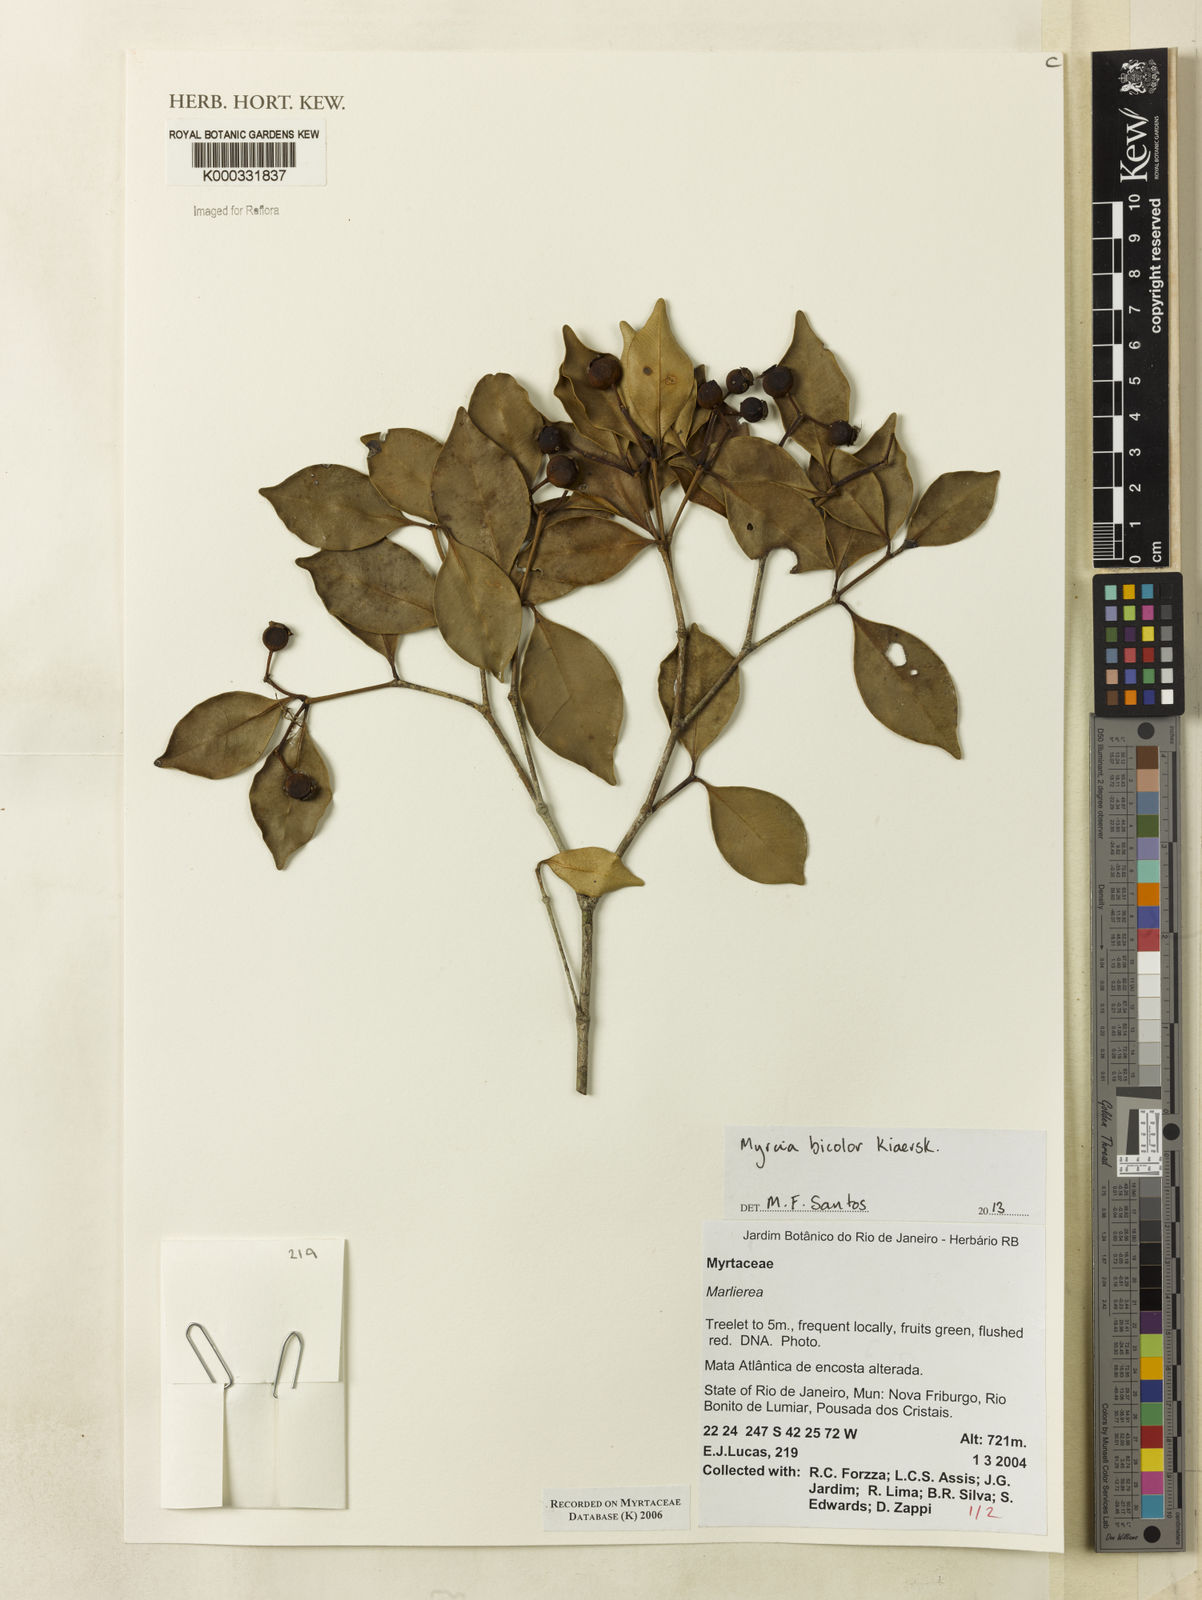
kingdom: Plantae
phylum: Tracheophyta
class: Magnoliopsida
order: Myrtales
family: Myrtaceae
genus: Marlierea
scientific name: Marlierea
